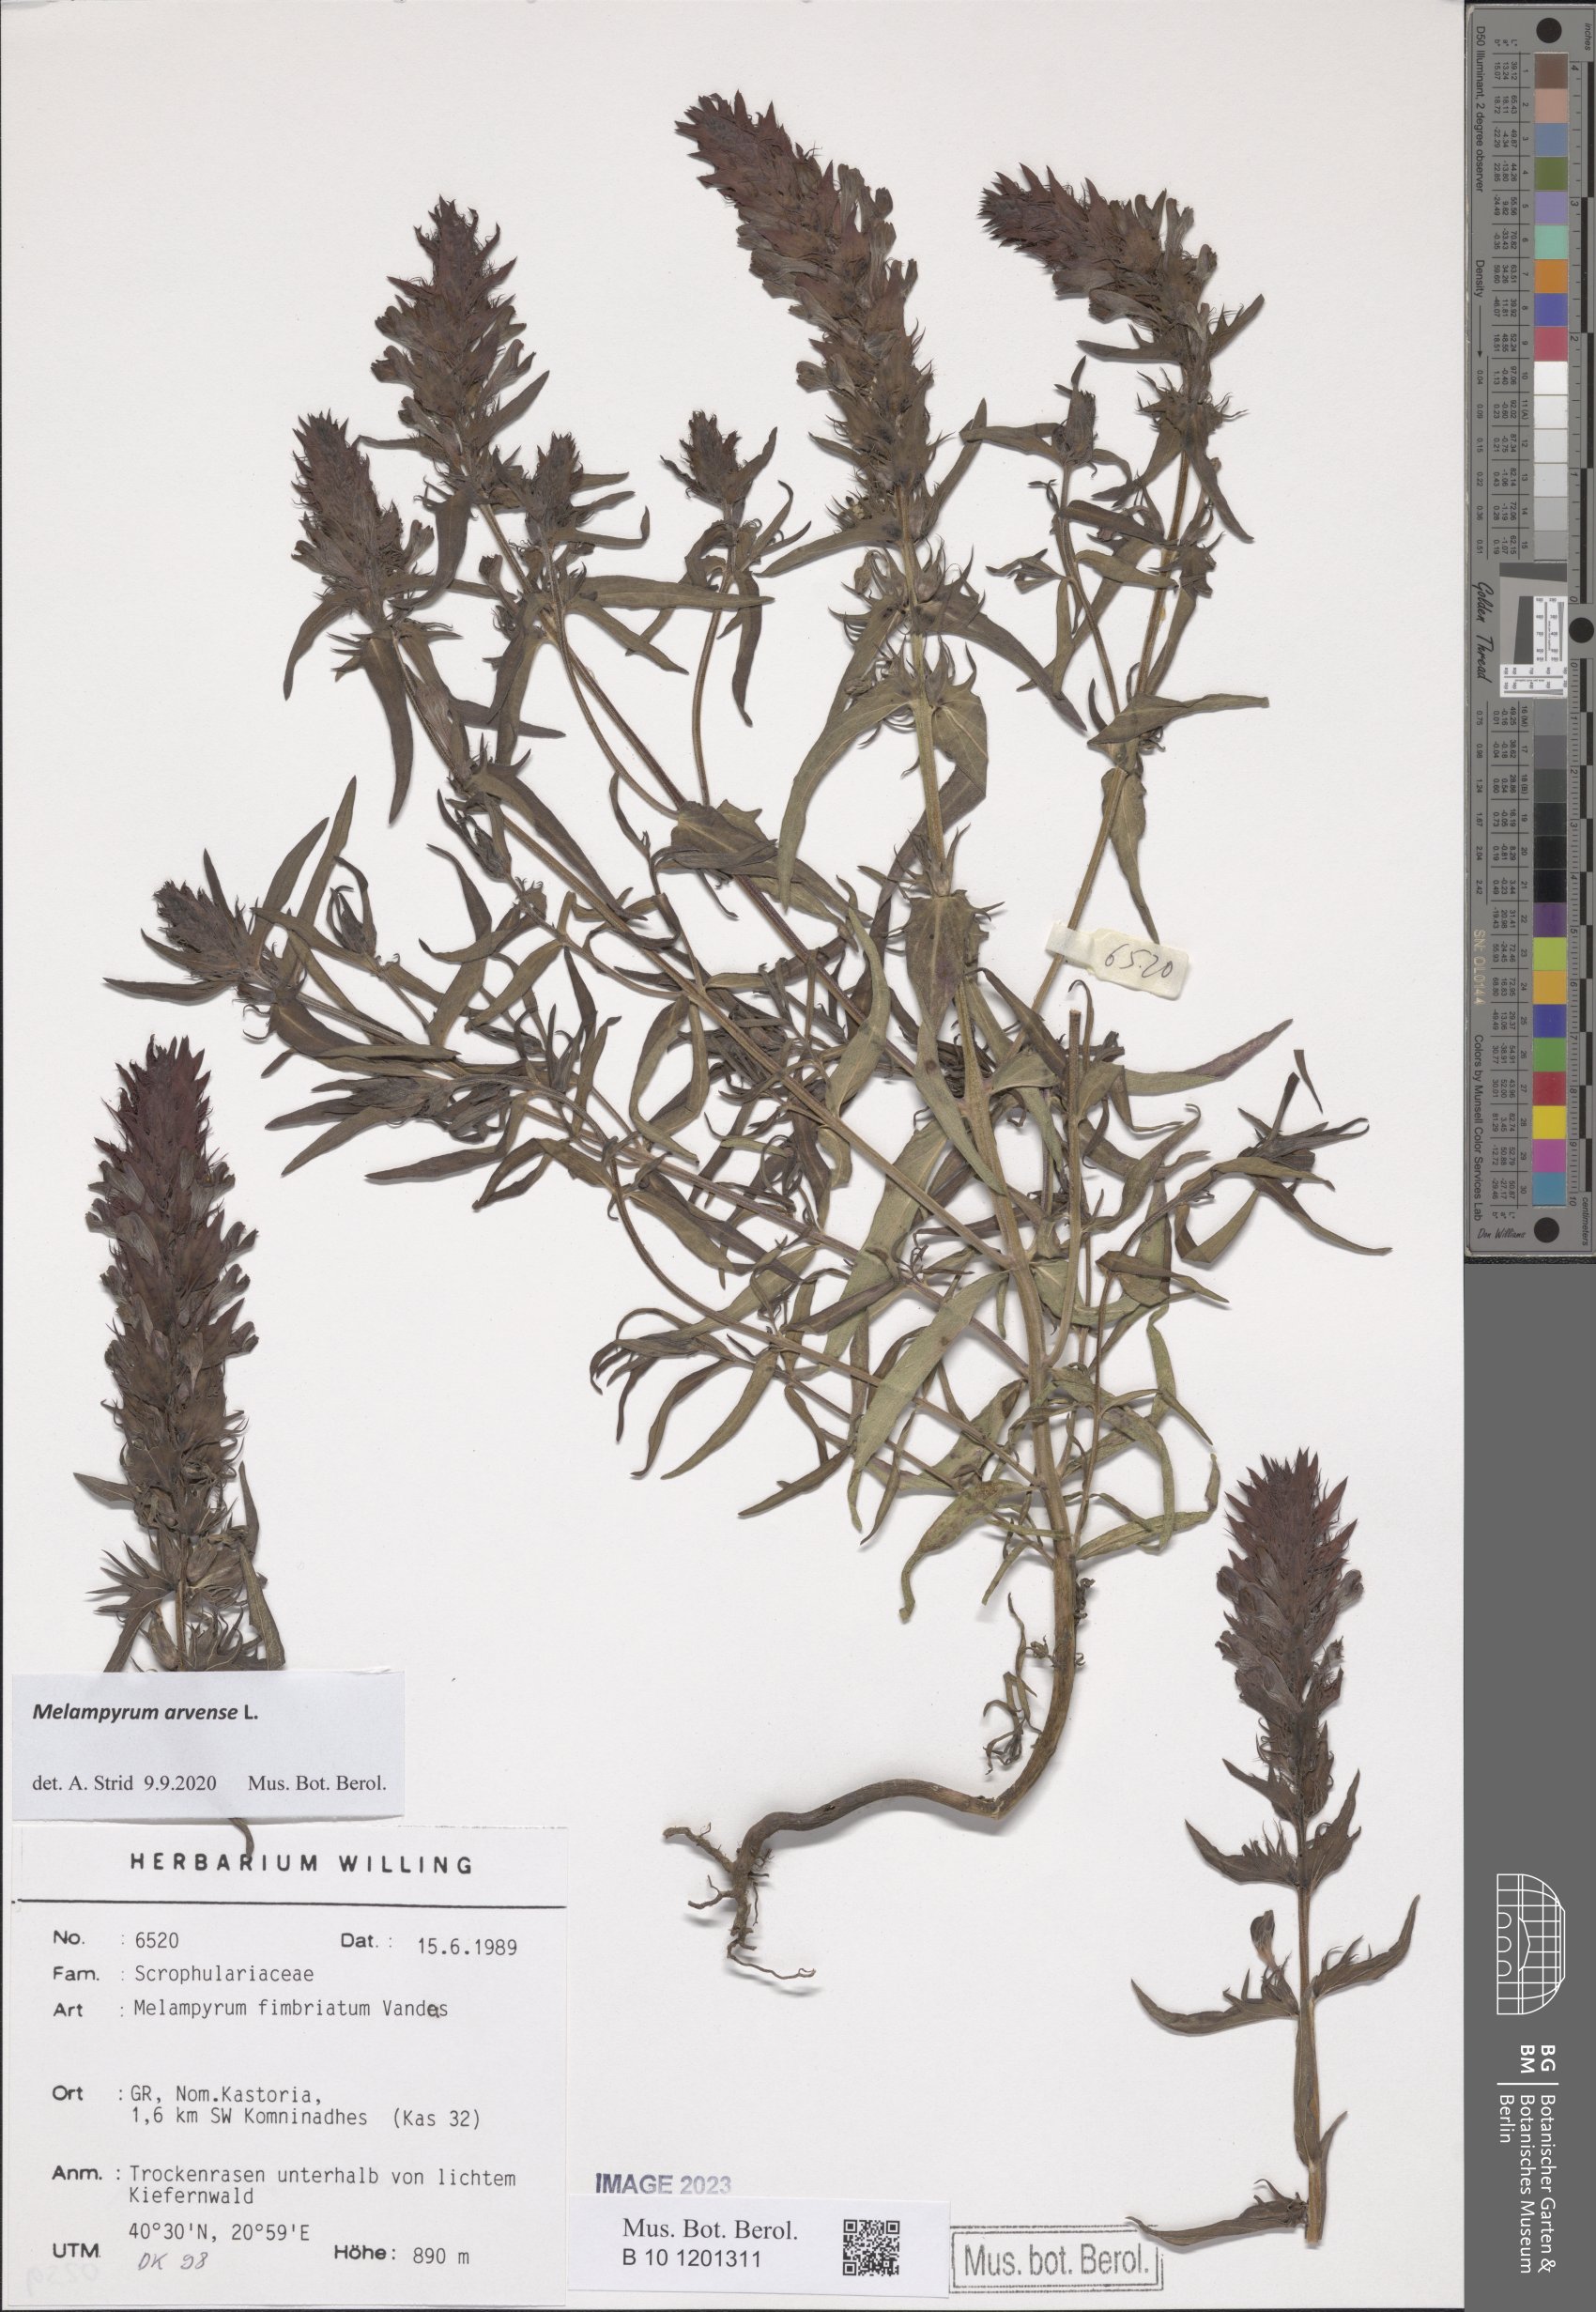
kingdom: Plantae
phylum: Tracheophyta
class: Magnoliopsida
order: Lamiales
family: Orobanchaceae
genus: Melampyrum
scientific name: Melampyrum arvense
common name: Field cow-wheat
